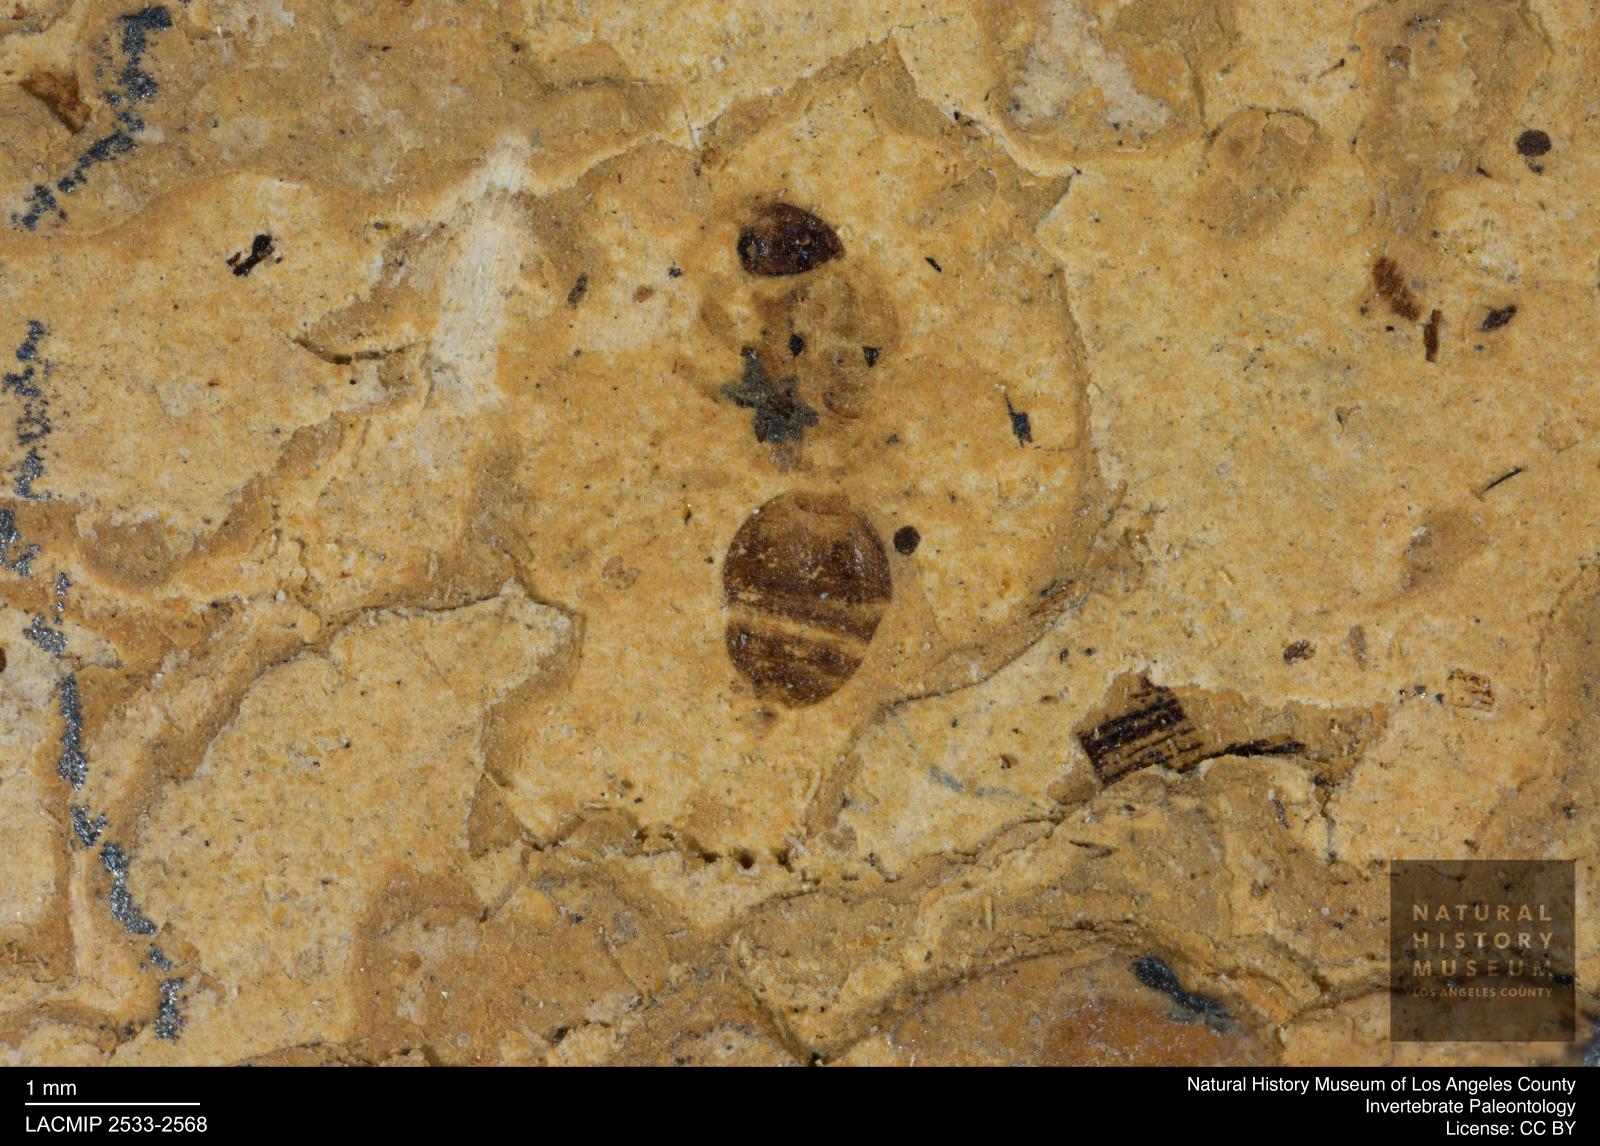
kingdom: Animalia
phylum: Arthropoda
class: Insecta
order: Hymenoptera
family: Formicidae
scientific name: Formicidae
